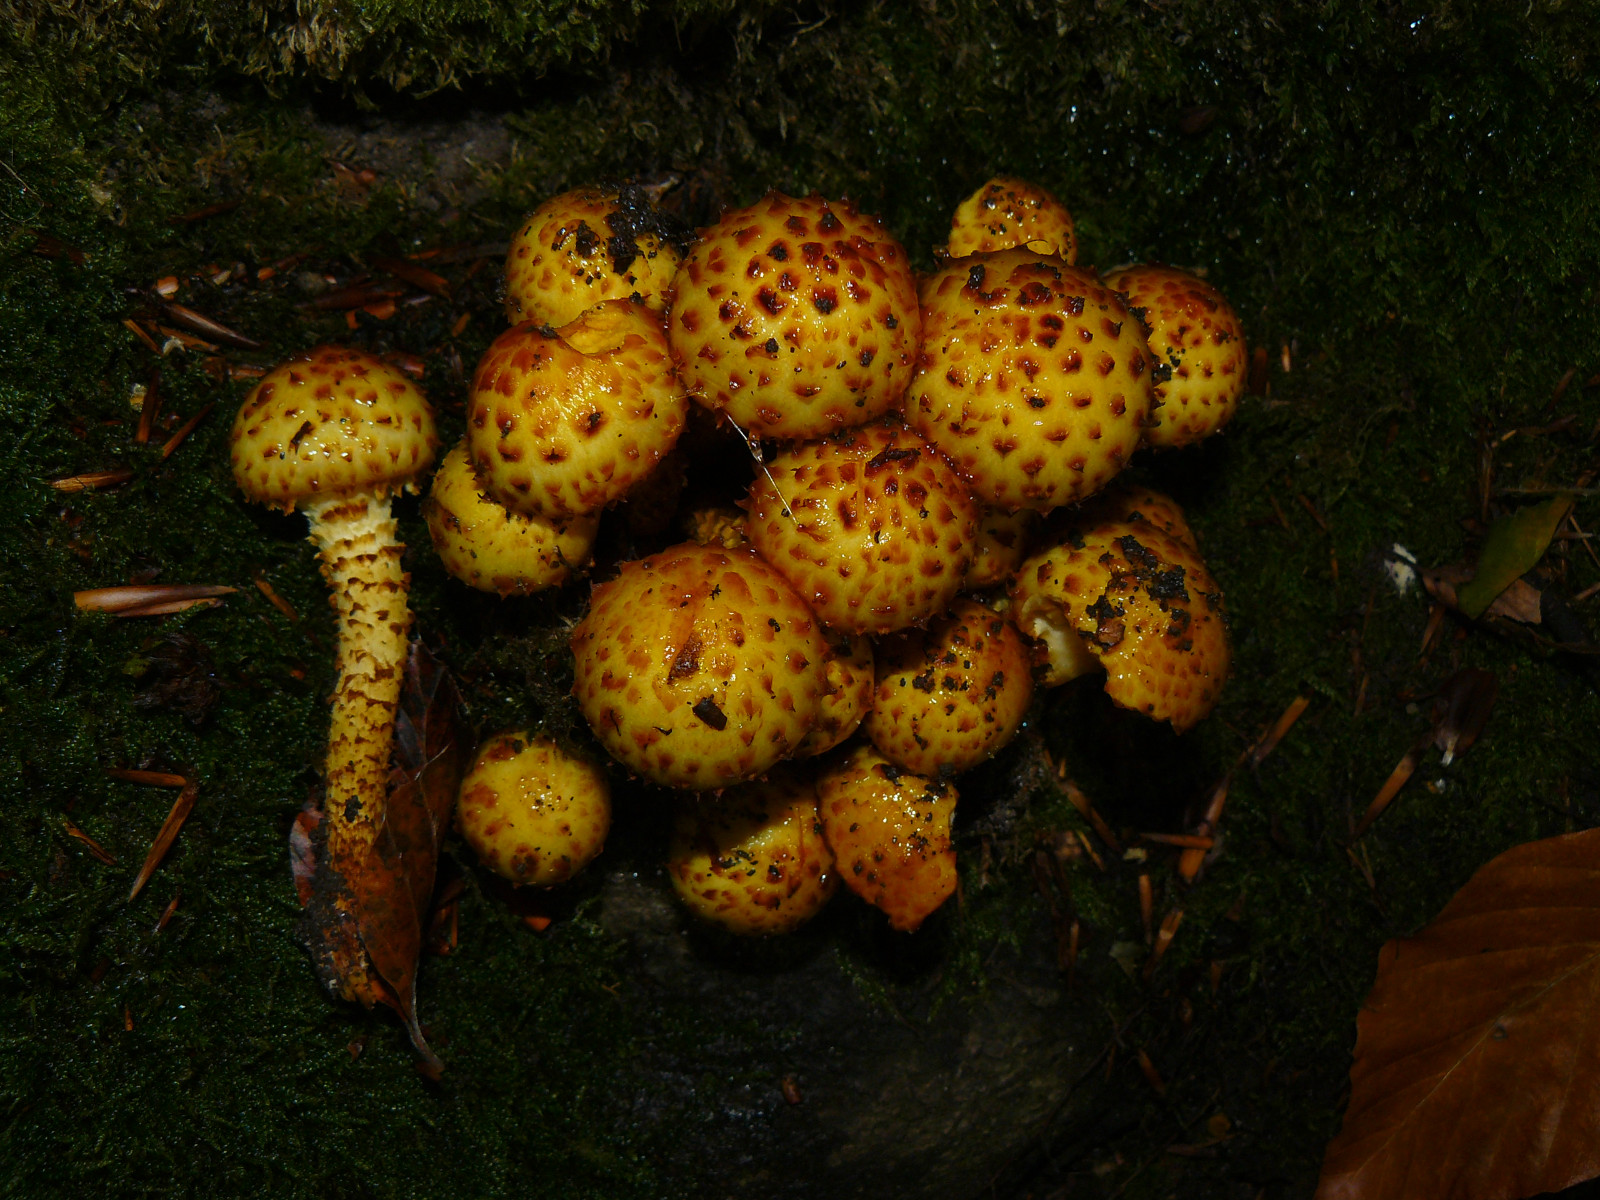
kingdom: Fungi
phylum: Basidiomycota
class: Agaricomycetes
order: Agaricales
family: Strophariaceae
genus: Pholiota
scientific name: Pholiota squarrosa
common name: krumskællet skælhat
